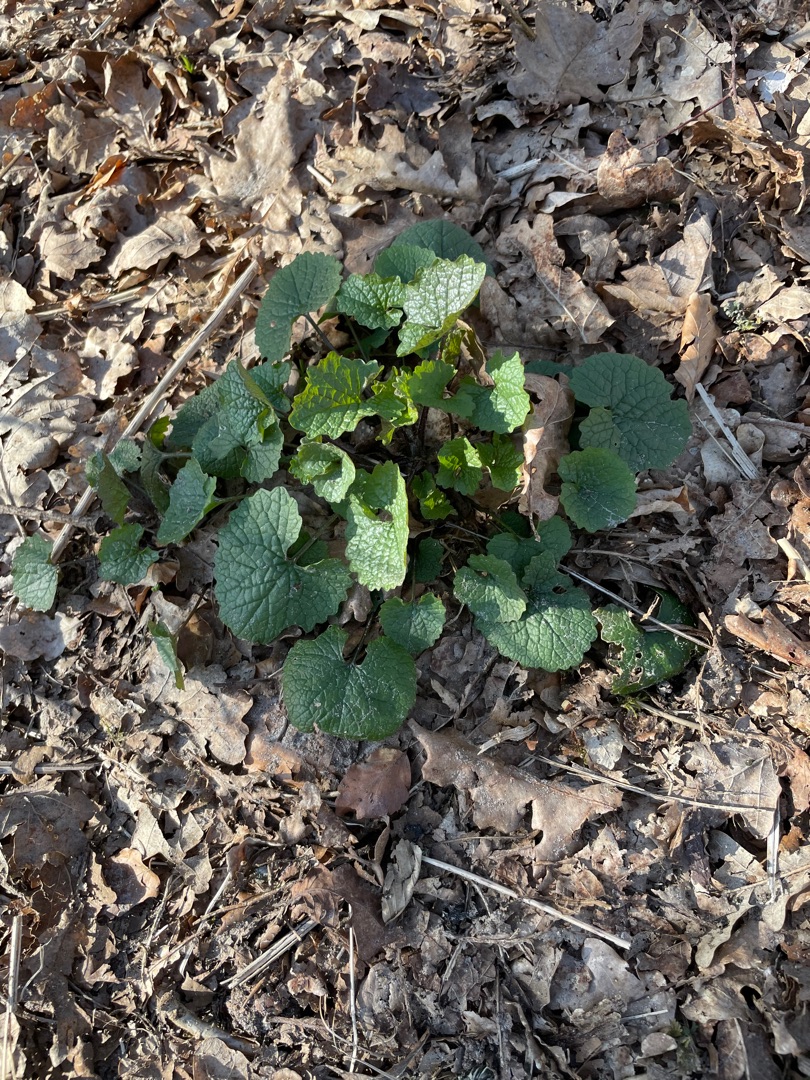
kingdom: Plantae
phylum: Tracheophyta
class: Magnoliopsida
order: Brassicales
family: Brassicaceae
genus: Alliaria
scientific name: Alliaria petiolata
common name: Løgkarse
